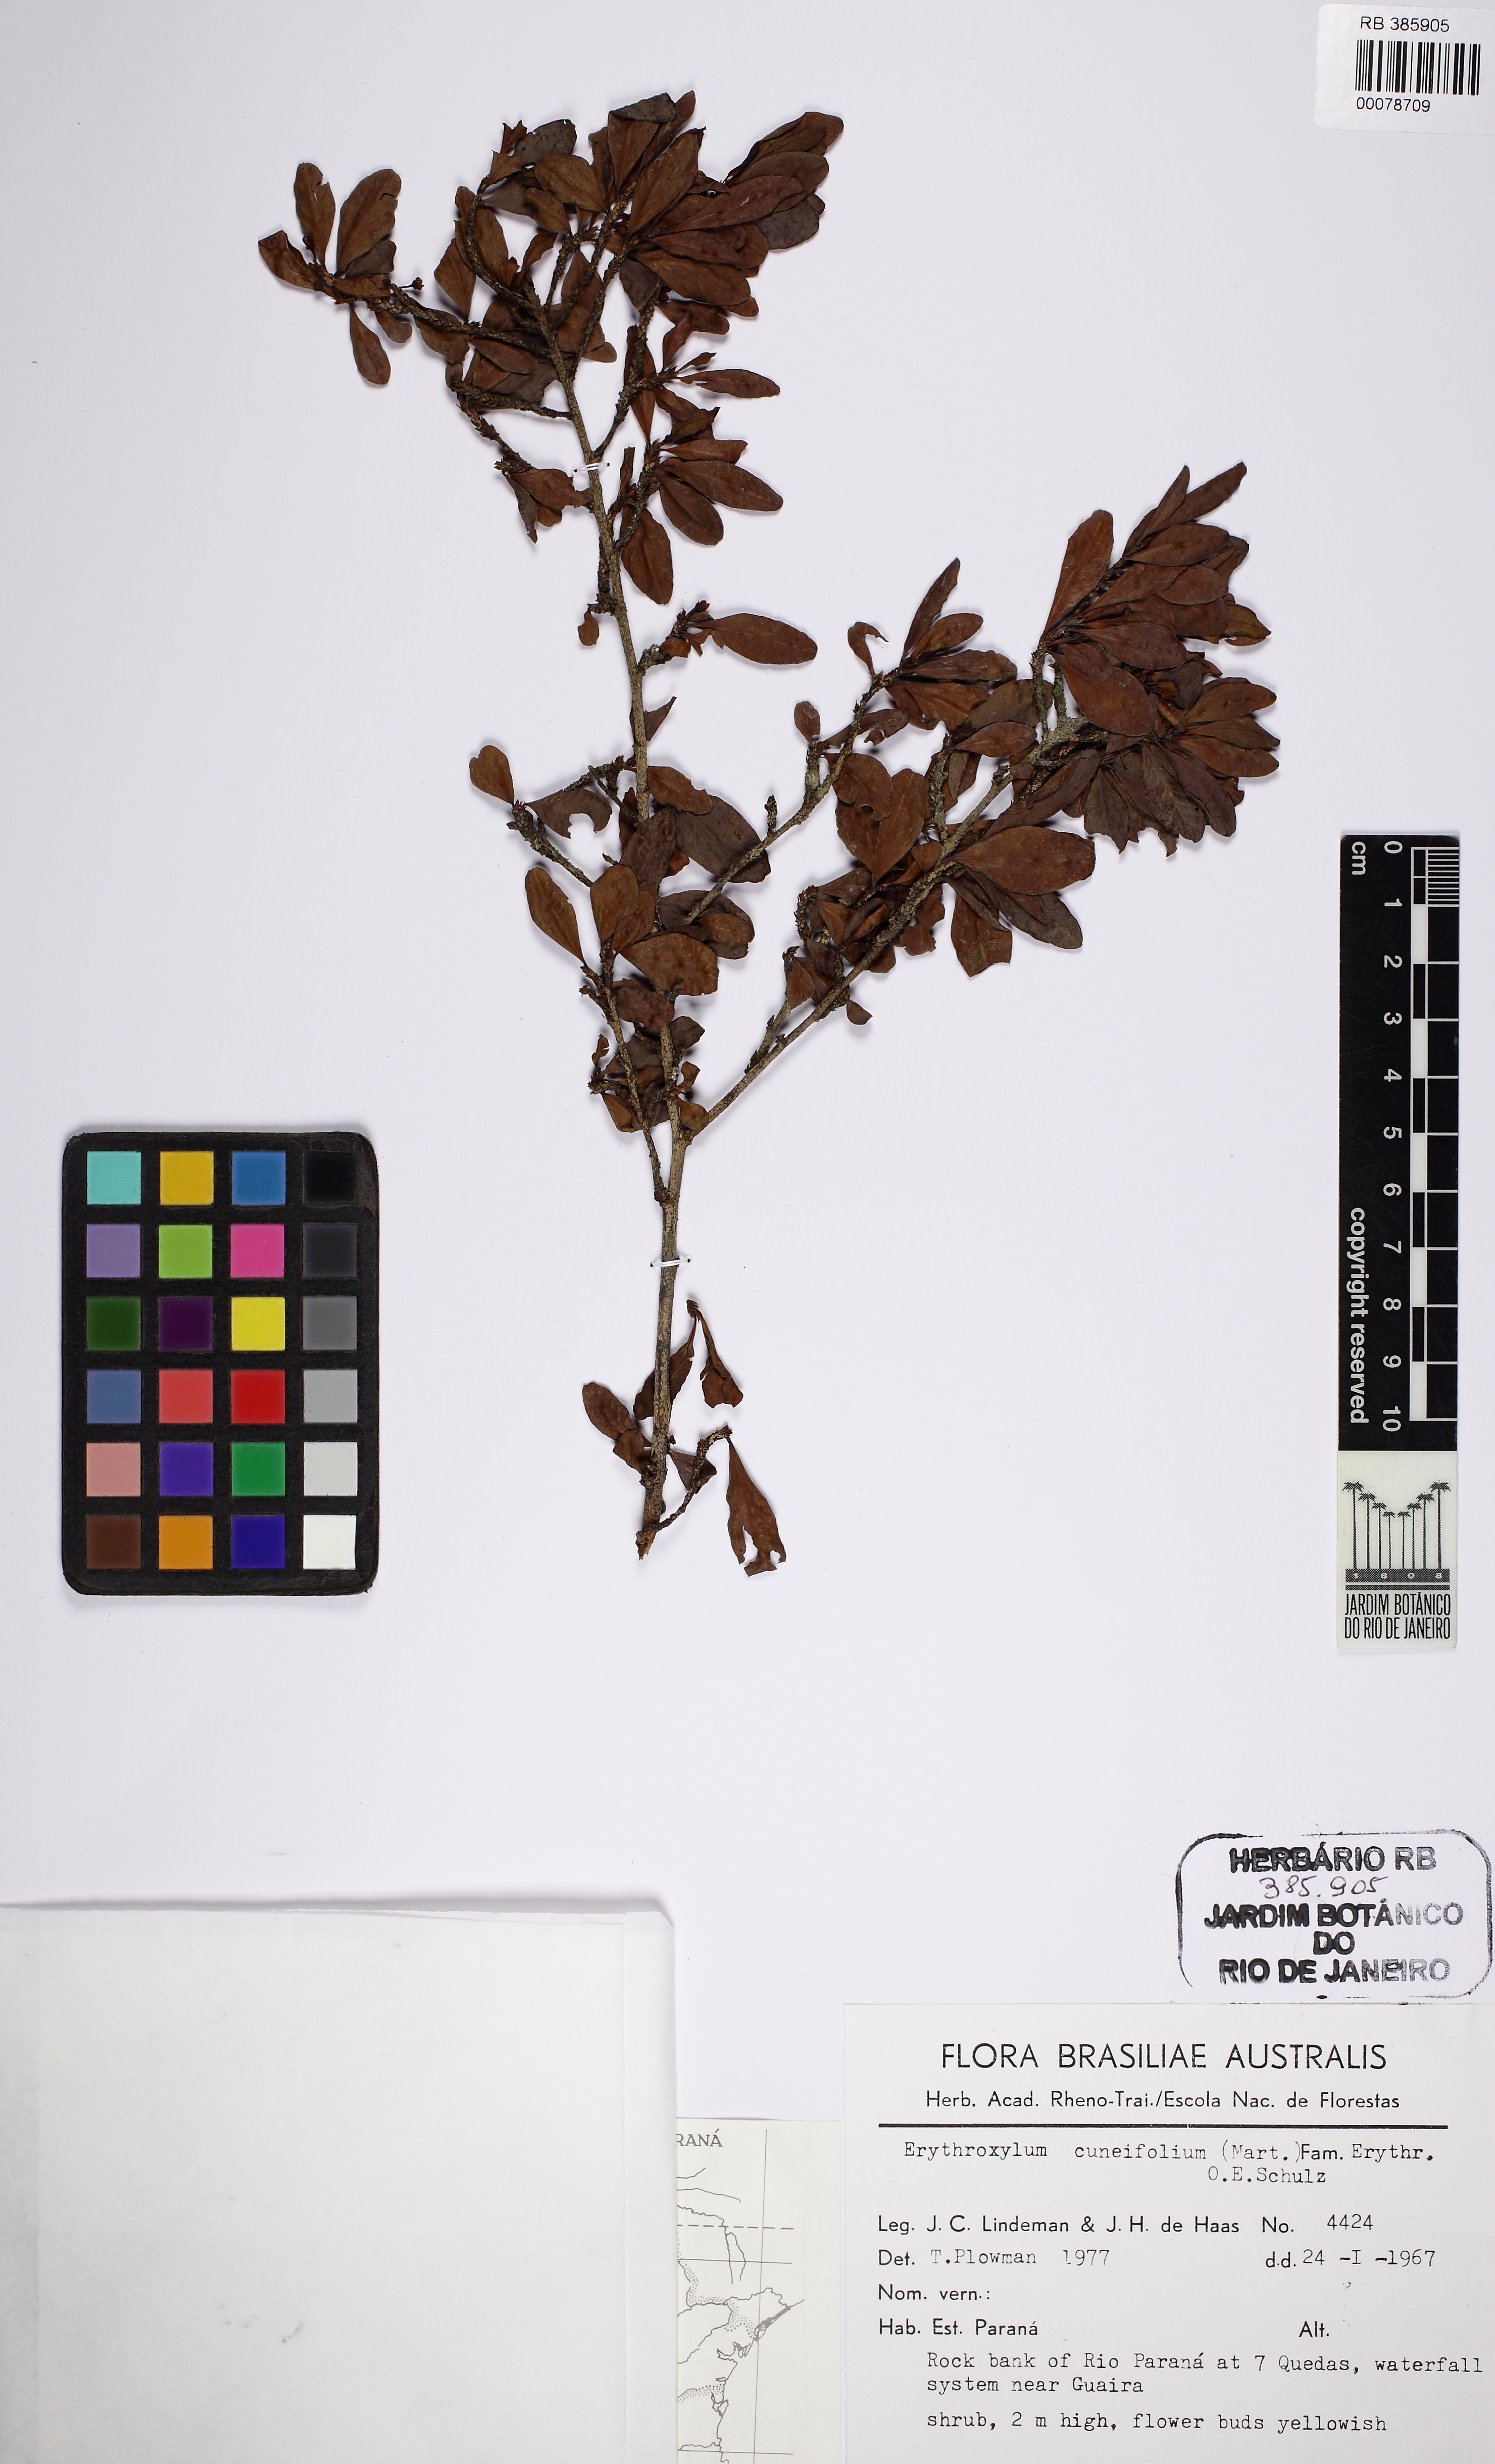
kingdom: Plantae
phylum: Tracheophyta
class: Magnoliopsida
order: Malpighiales
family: Erythroxylaceae
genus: Erythroxylum
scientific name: Erythroxylum cuneifolium
